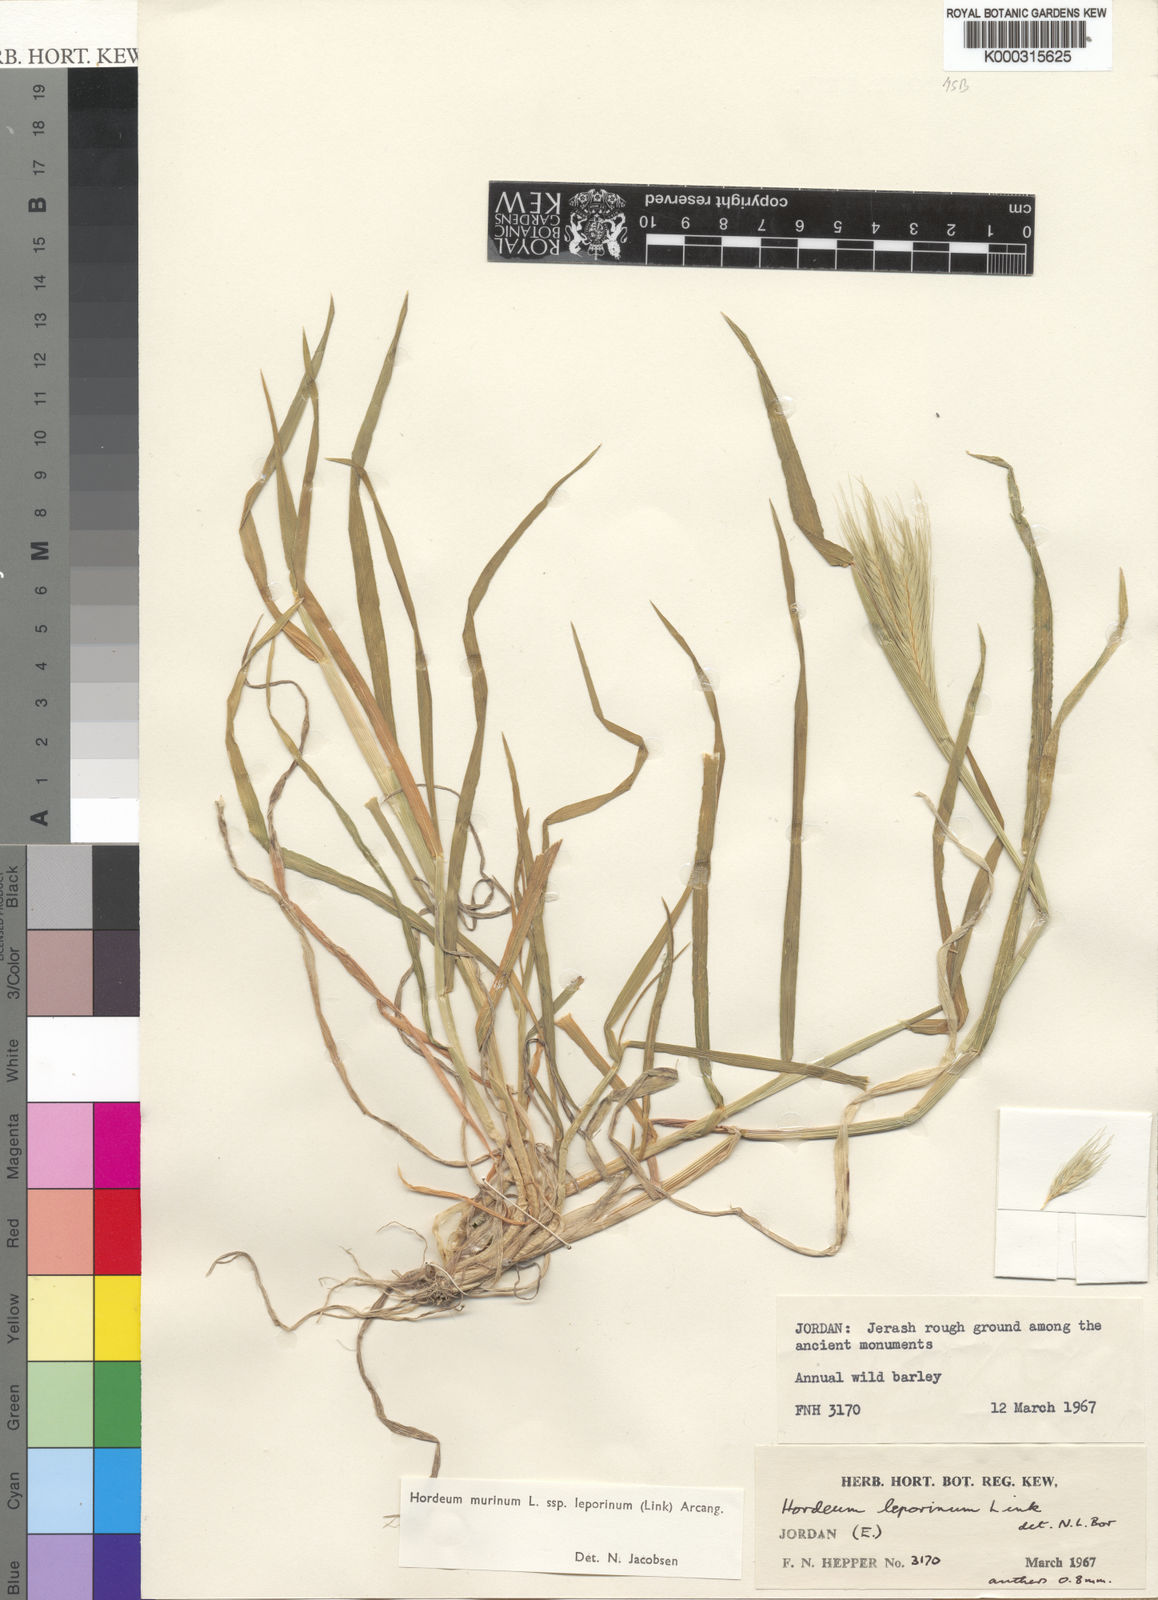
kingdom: Plantae
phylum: Tracheophyta
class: Liliopsida
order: Poales
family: Poaceae
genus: Hordeum
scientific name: Hordeum murinum
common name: Wall barley
